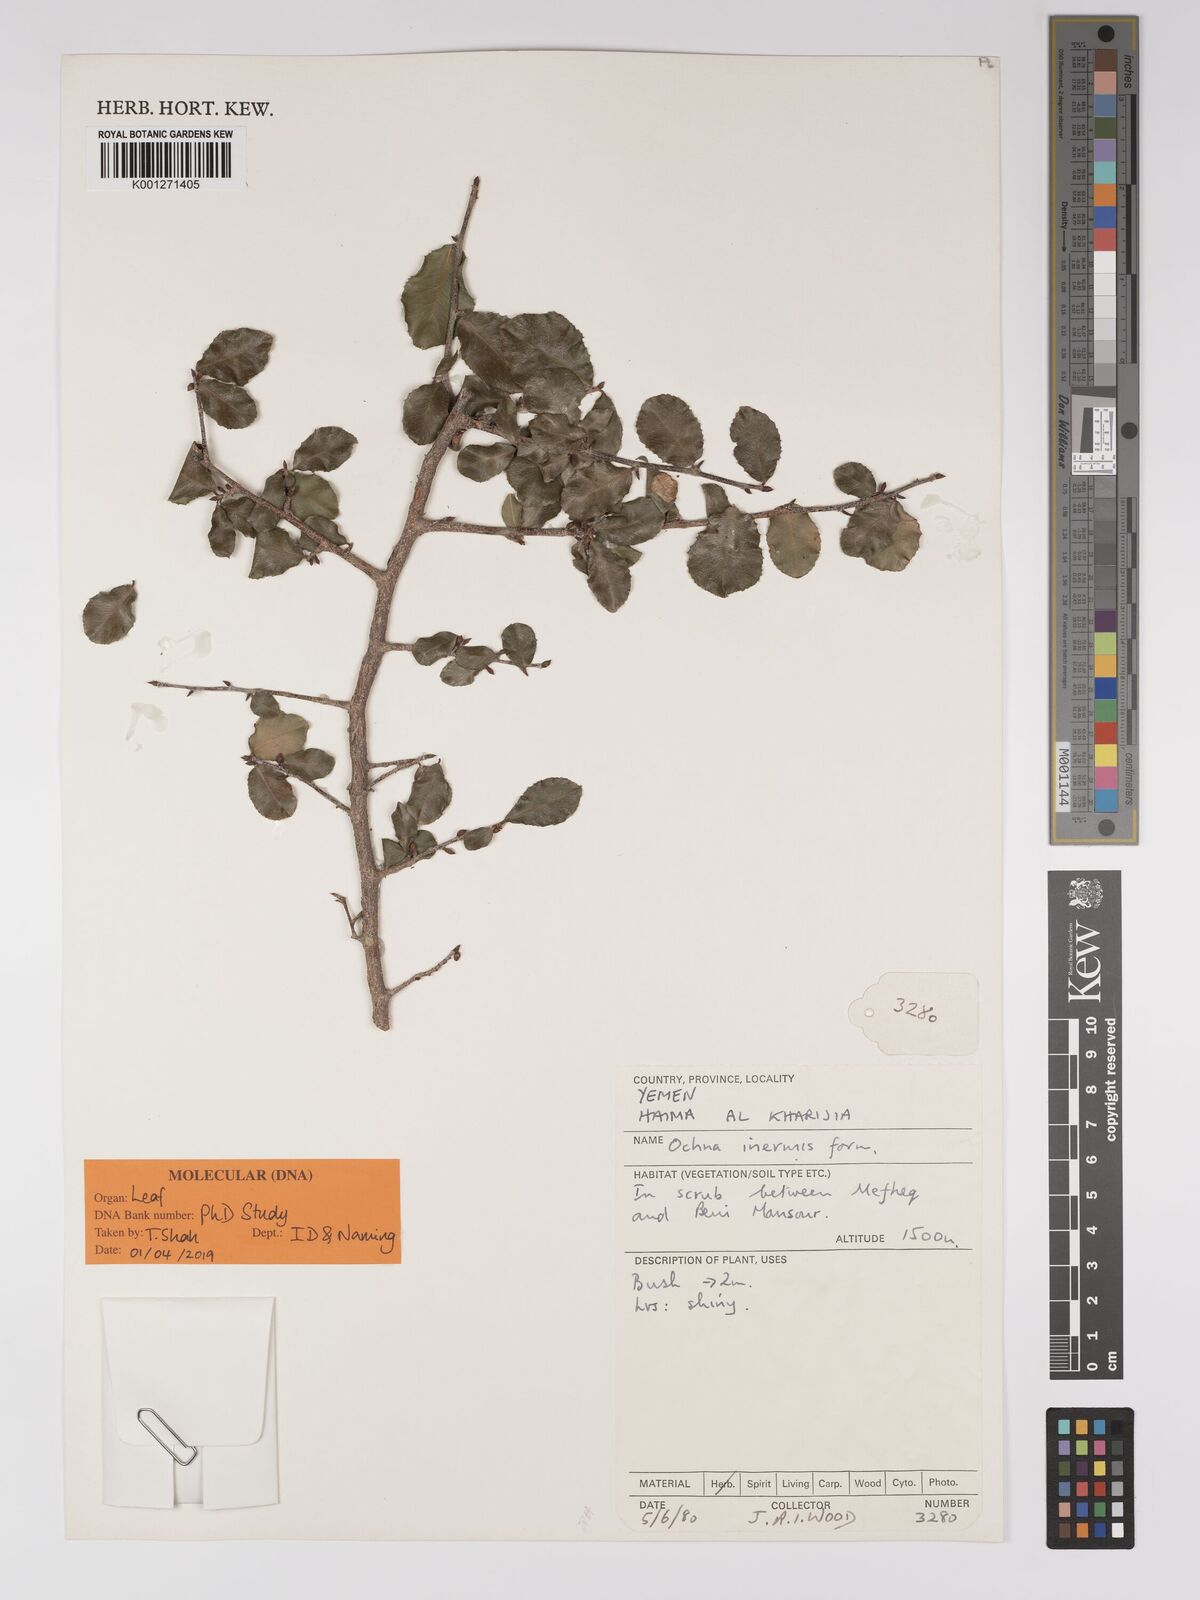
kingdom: Plantae
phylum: Tracheophyta
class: Magnoliopsida
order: Malpighiales
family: Ochnaceae
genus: Ochna
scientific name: Ochna inermis
